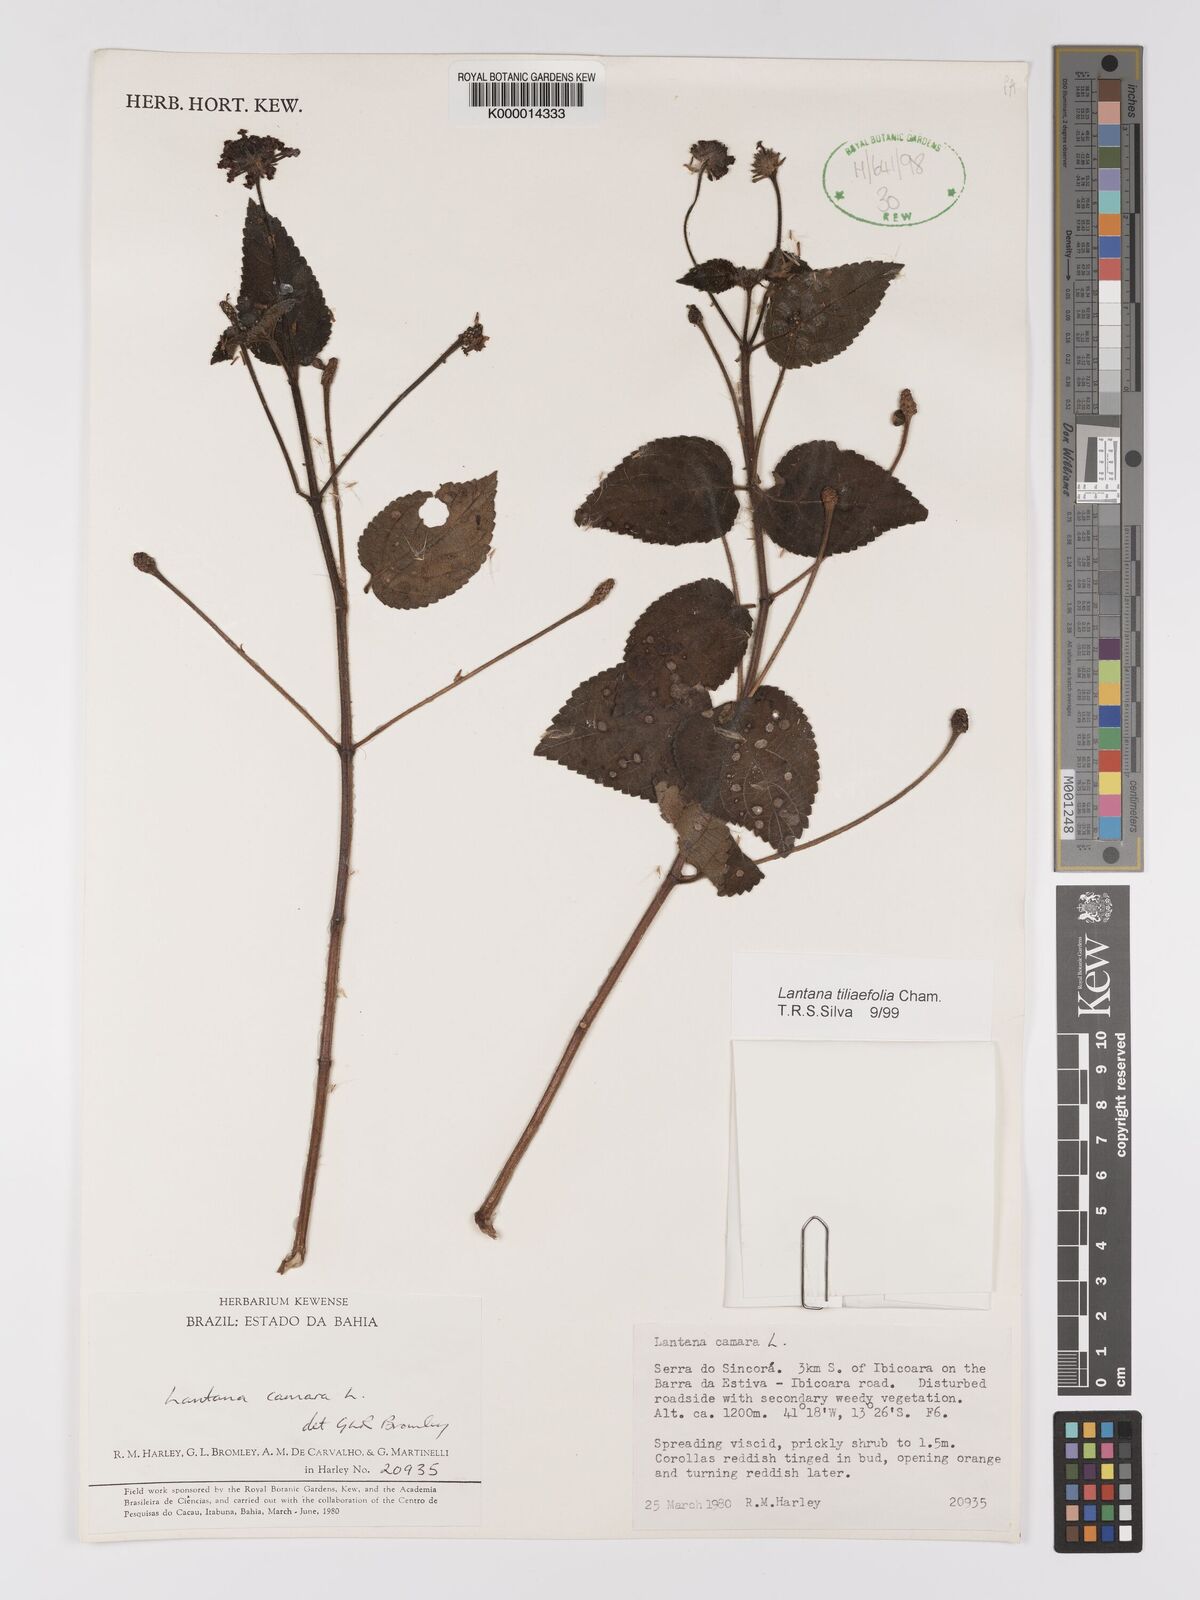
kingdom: Plantae
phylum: Tracheophyta
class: Magnoliopsida
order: Lamiales
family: Verbenaceae
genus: Lantana
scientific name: Lantana
